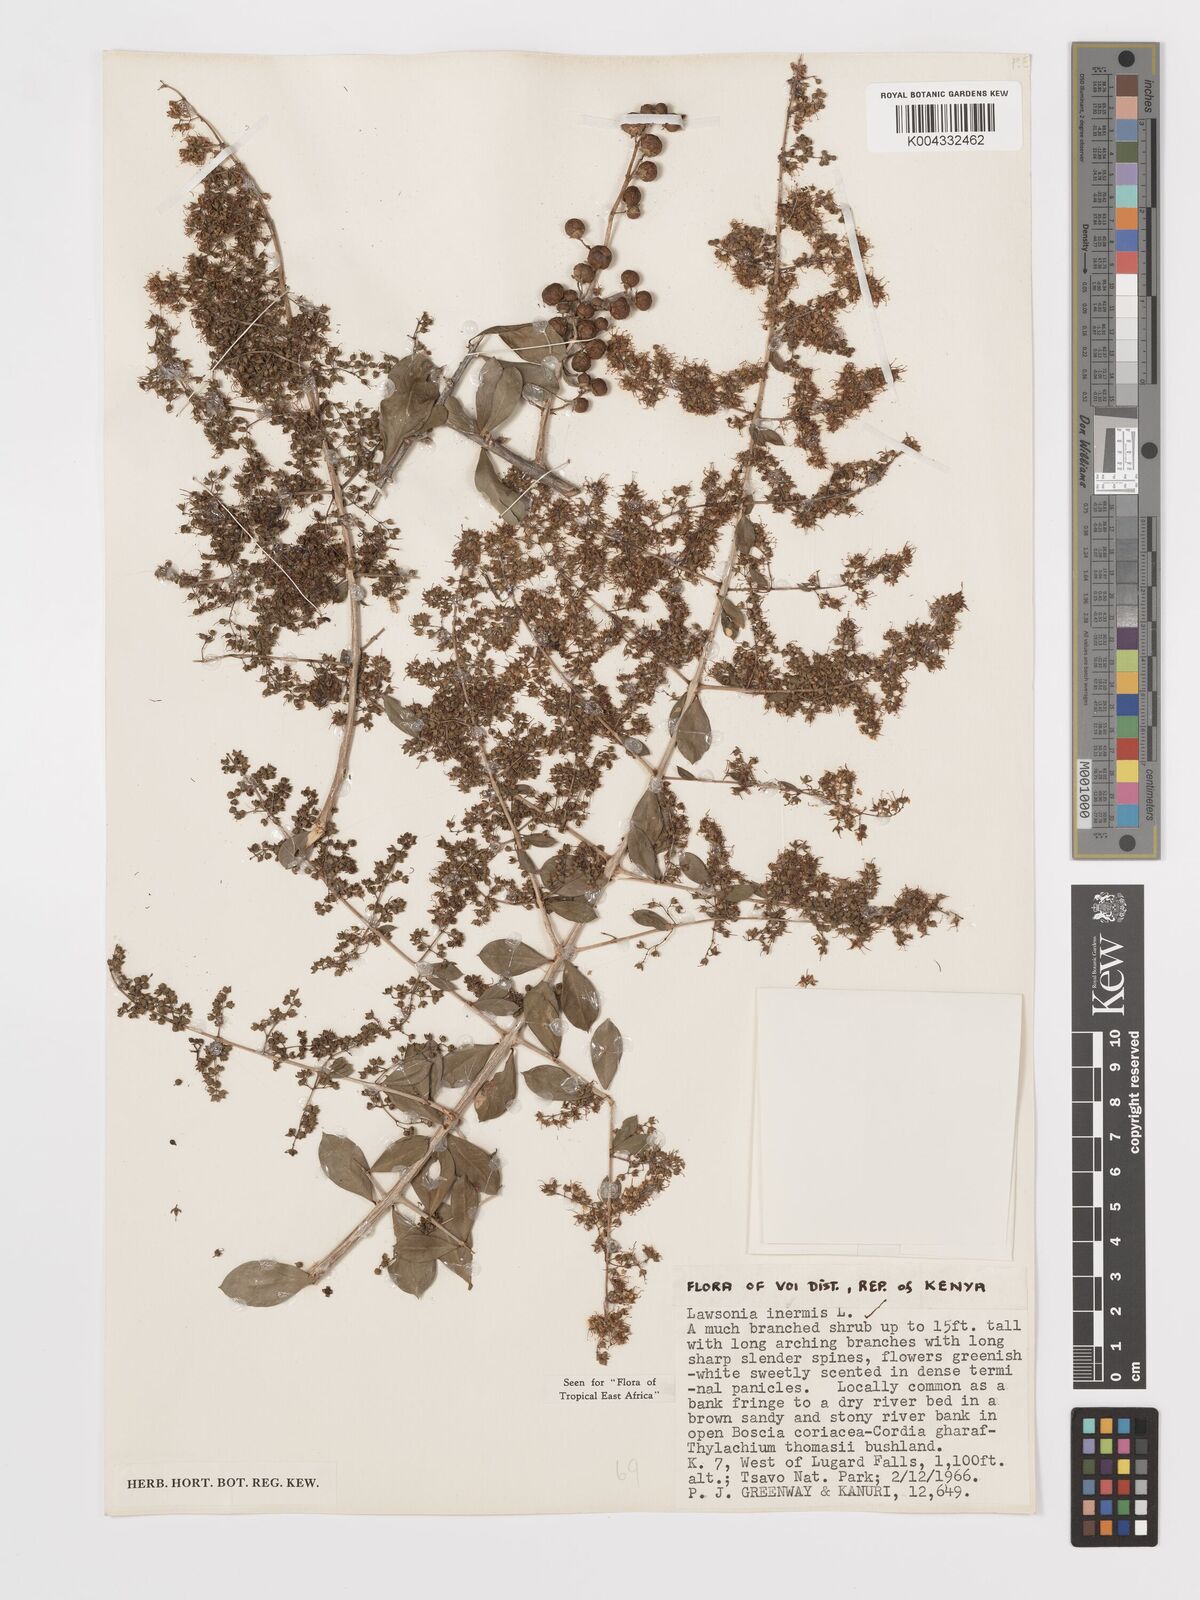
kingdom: Plantae
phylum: Tracheophyta
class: Magnoliopsida
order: Myrtales
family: Lythraceae
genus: Lawsonia
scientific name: Lawsonia inermis
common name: Henna
